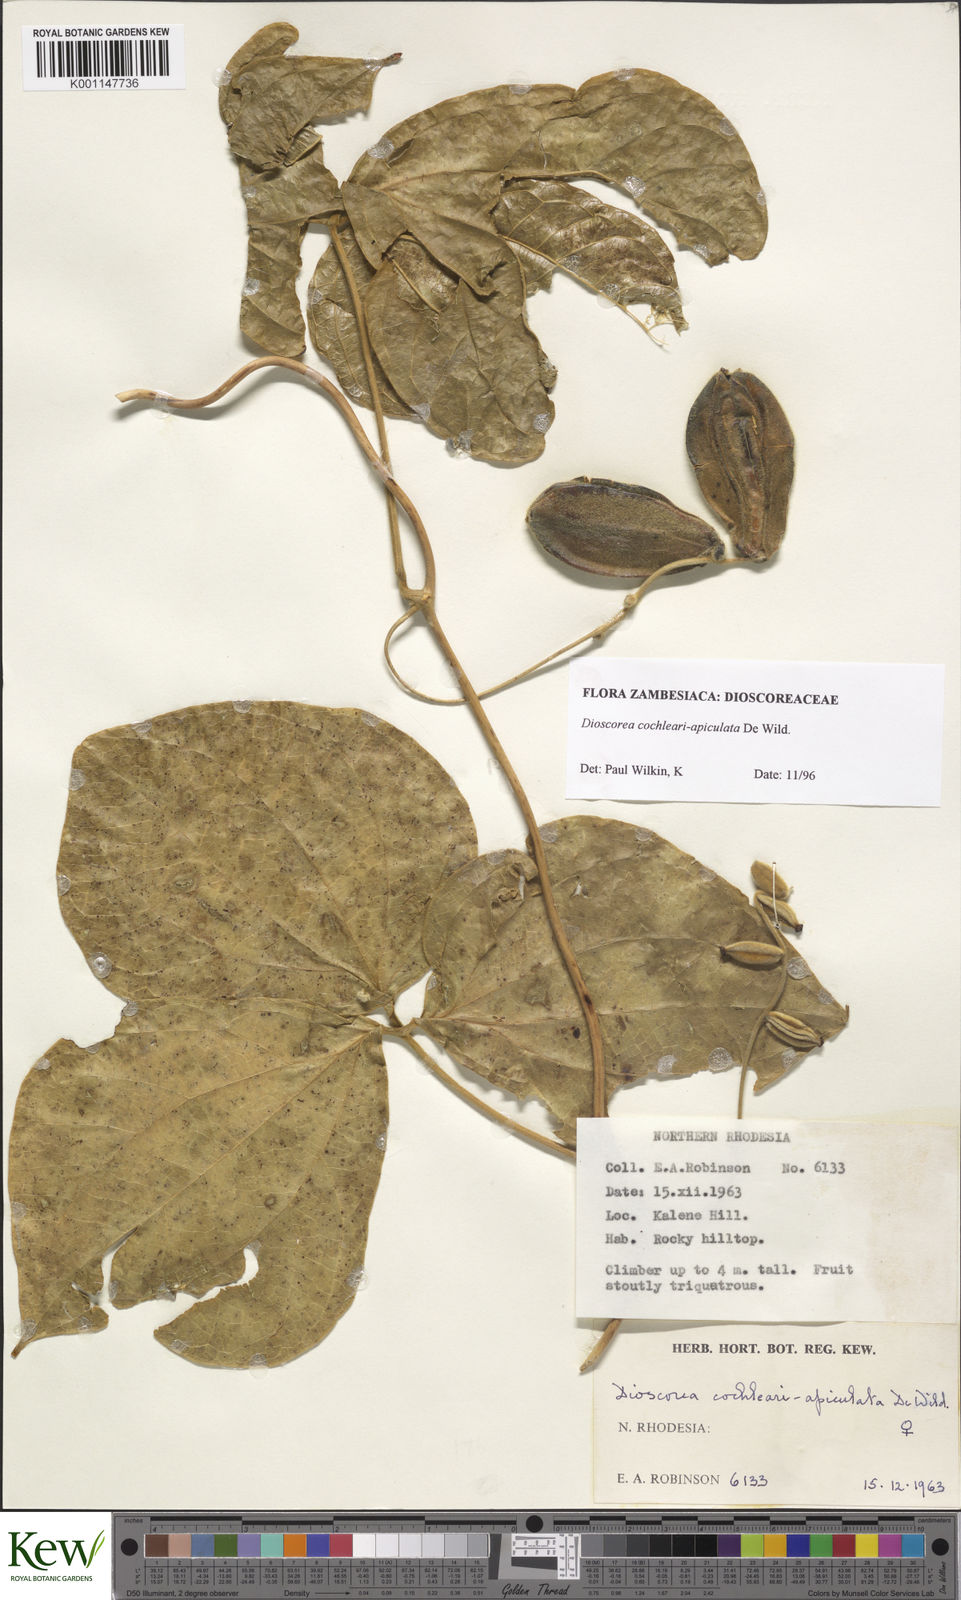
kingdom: Plantae
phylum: Tracheophyta
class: Liliopsida
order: Dioscoreales
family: Dioscoreaceae
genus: Dioscorea
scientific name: Dioscorea cochleariapiculata
